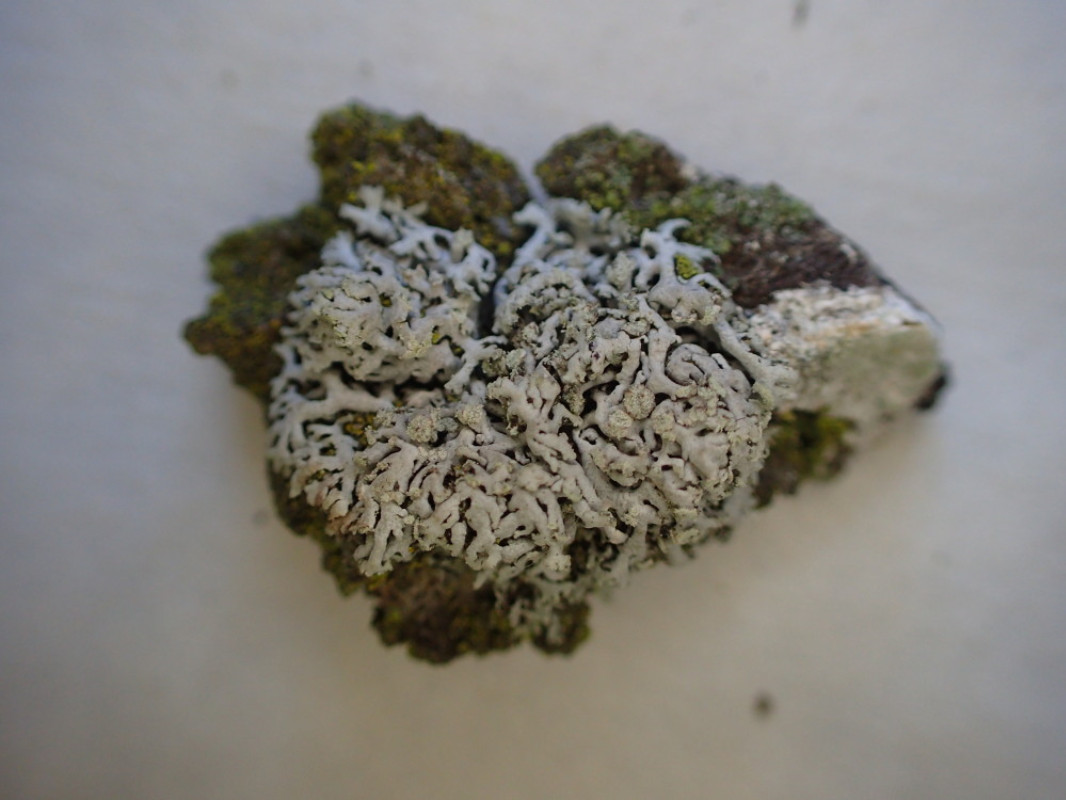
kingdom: Fungi
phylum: Ascomycota
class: Lecanoromycetes
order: Caliciales
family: Physciaceae
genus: Physcia
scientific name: Physcia dubia
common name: fuglestens-rosetlav
